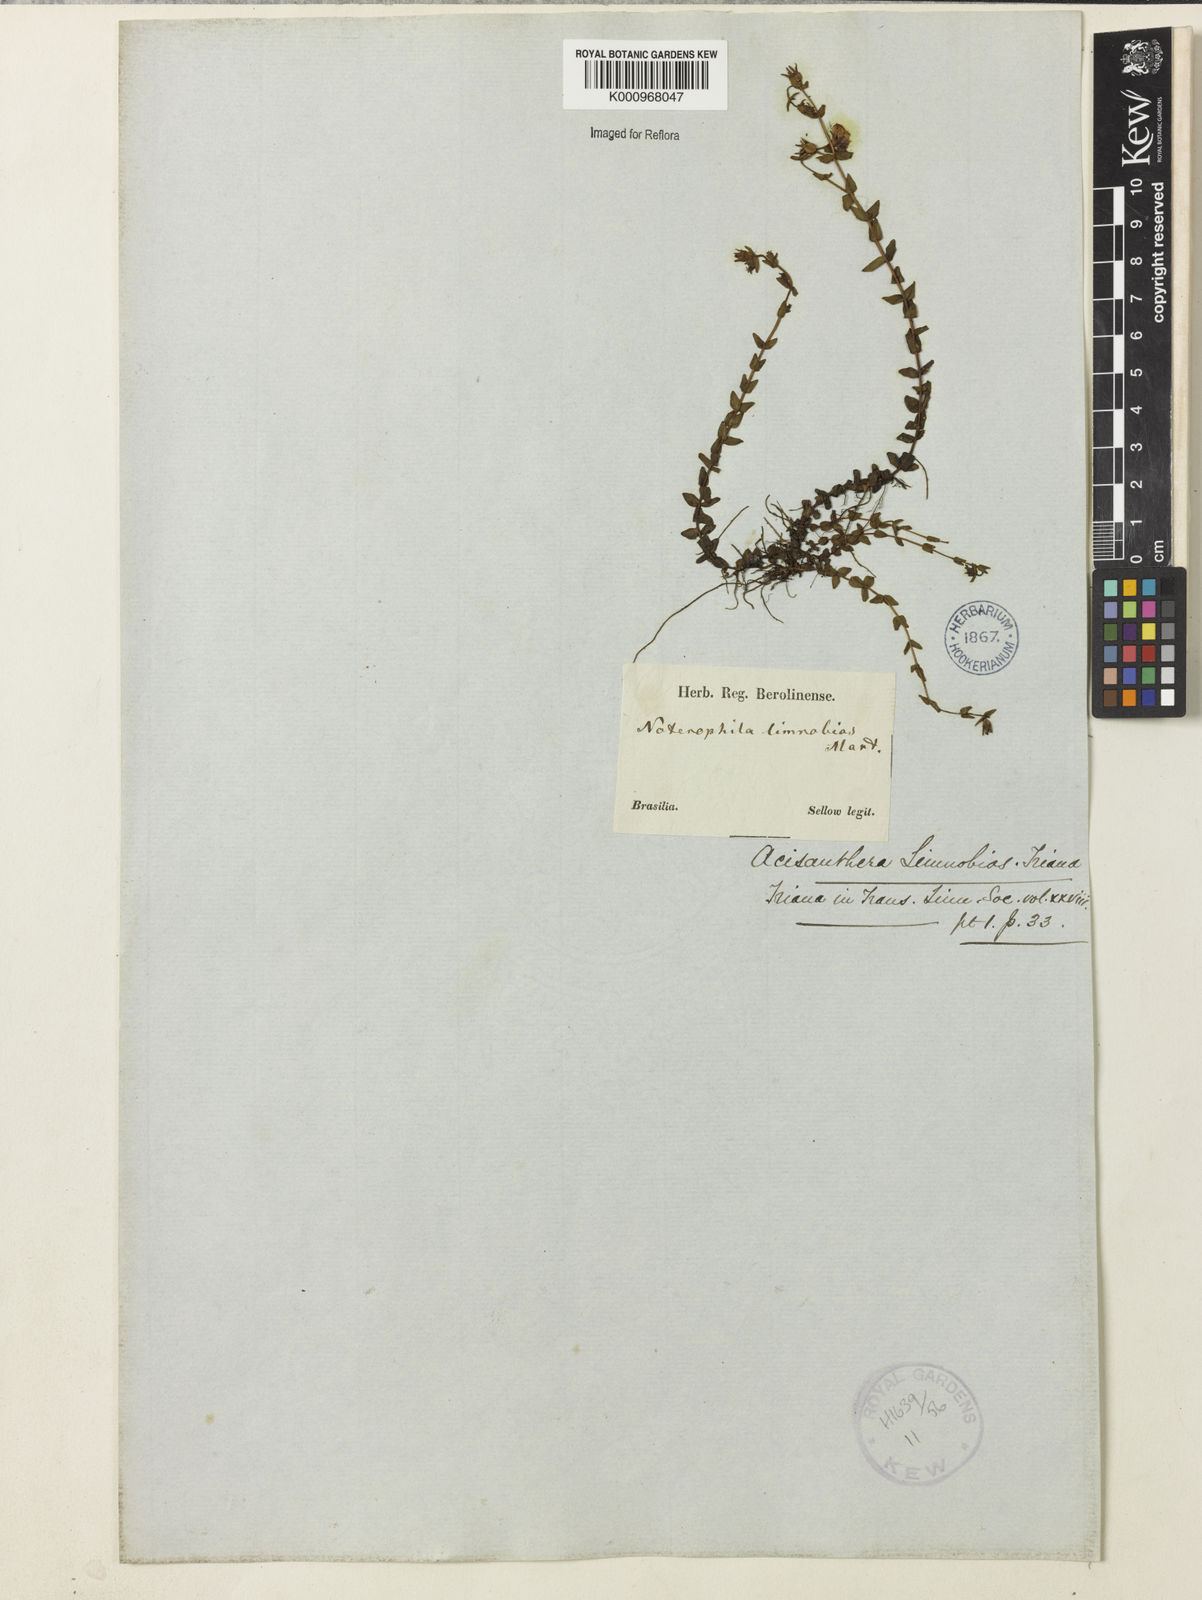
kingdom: Plantae
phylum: Tracheophyta
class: Magnoliopsida
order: Myrtales
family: Melastomataceae
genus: Acisanthera
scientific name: Acisanthera
